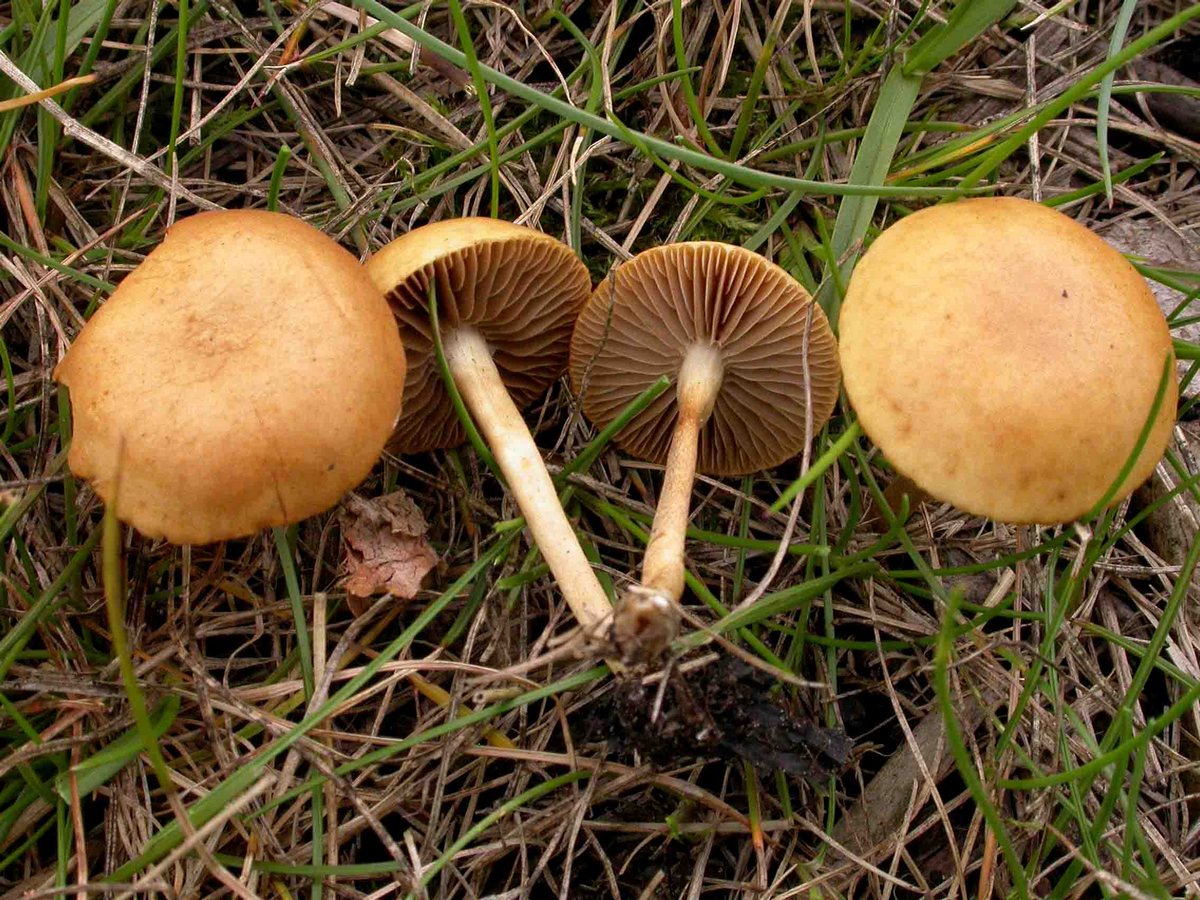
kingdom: Fungi
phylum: Basidiomycota
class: Agaricomycetes
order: Agaricales
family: Strophariaceae
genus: Agrocybe
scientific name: Agrocybe pediades
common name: almindelig agerhat
